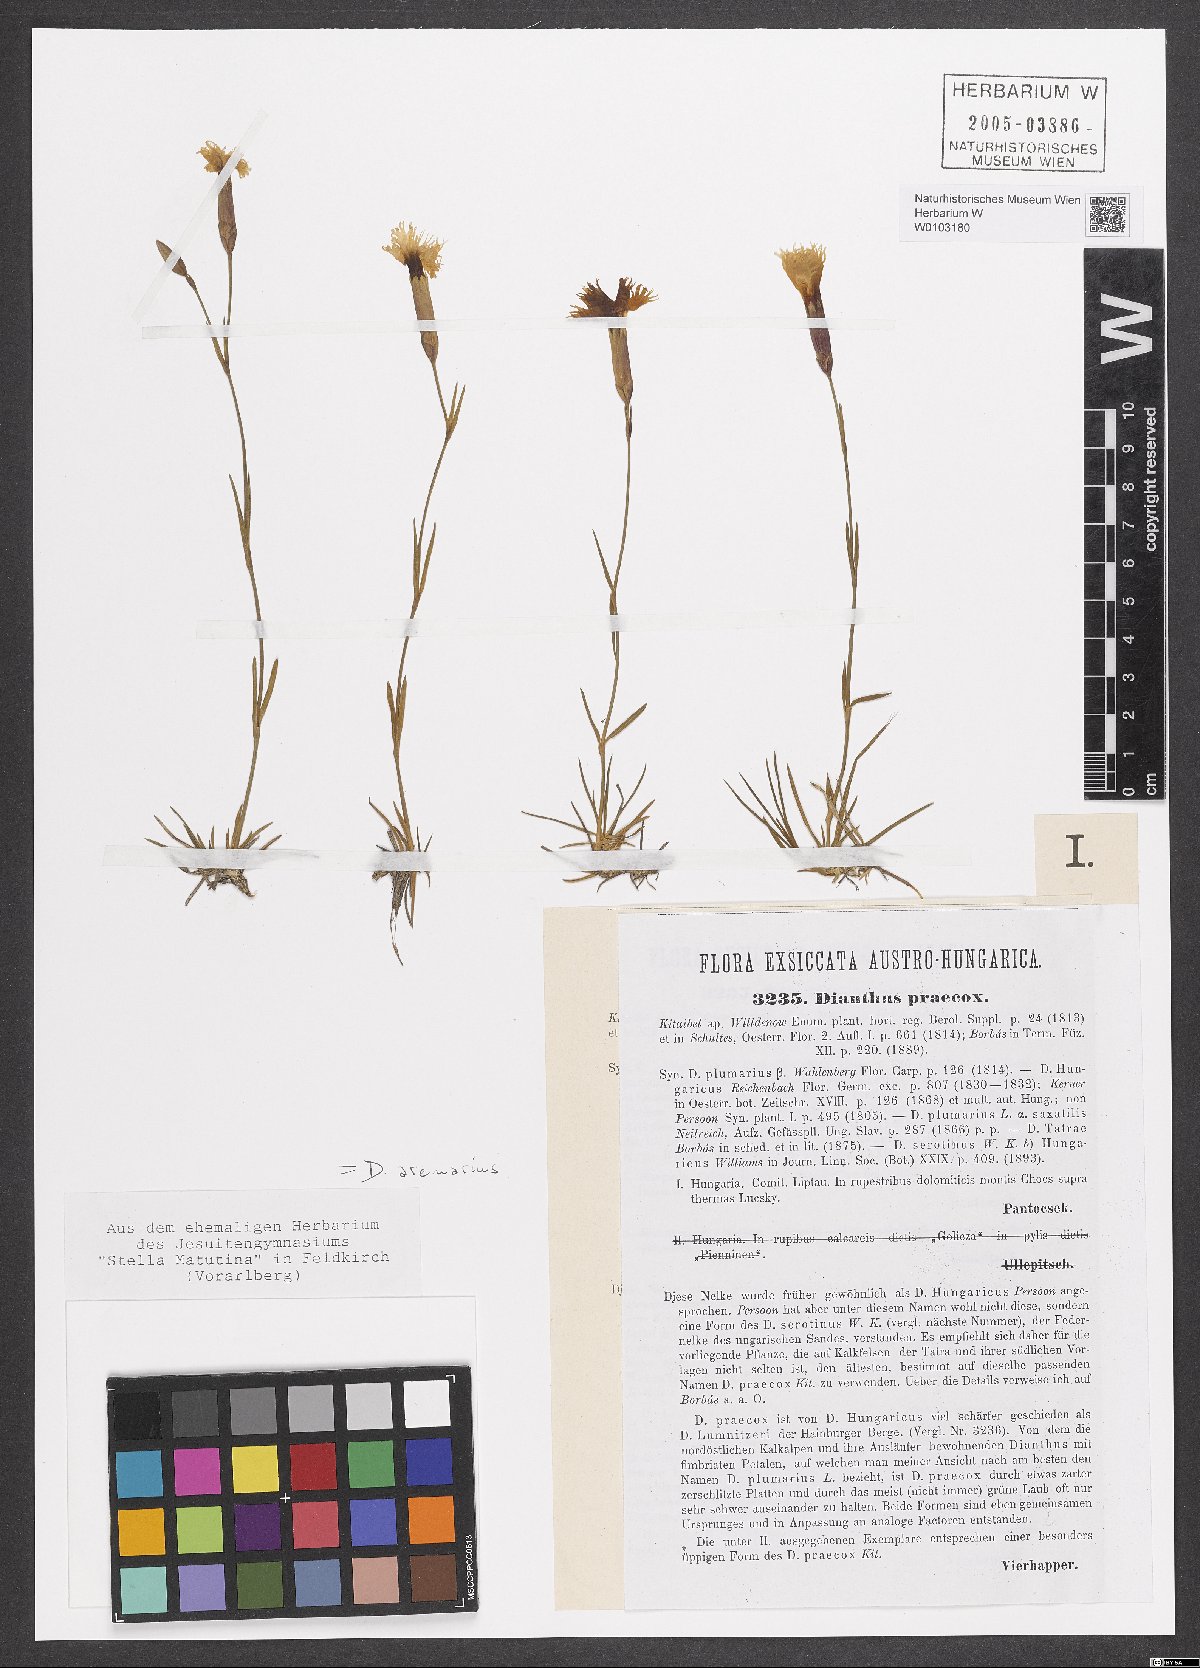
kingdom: Plantae
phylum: Tracheophyta
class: Magnoliopsida
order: Caryophyllales
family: Caryophyllaceae
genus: Dianthus
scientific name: Dianthus arenarius
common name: Stone pink
